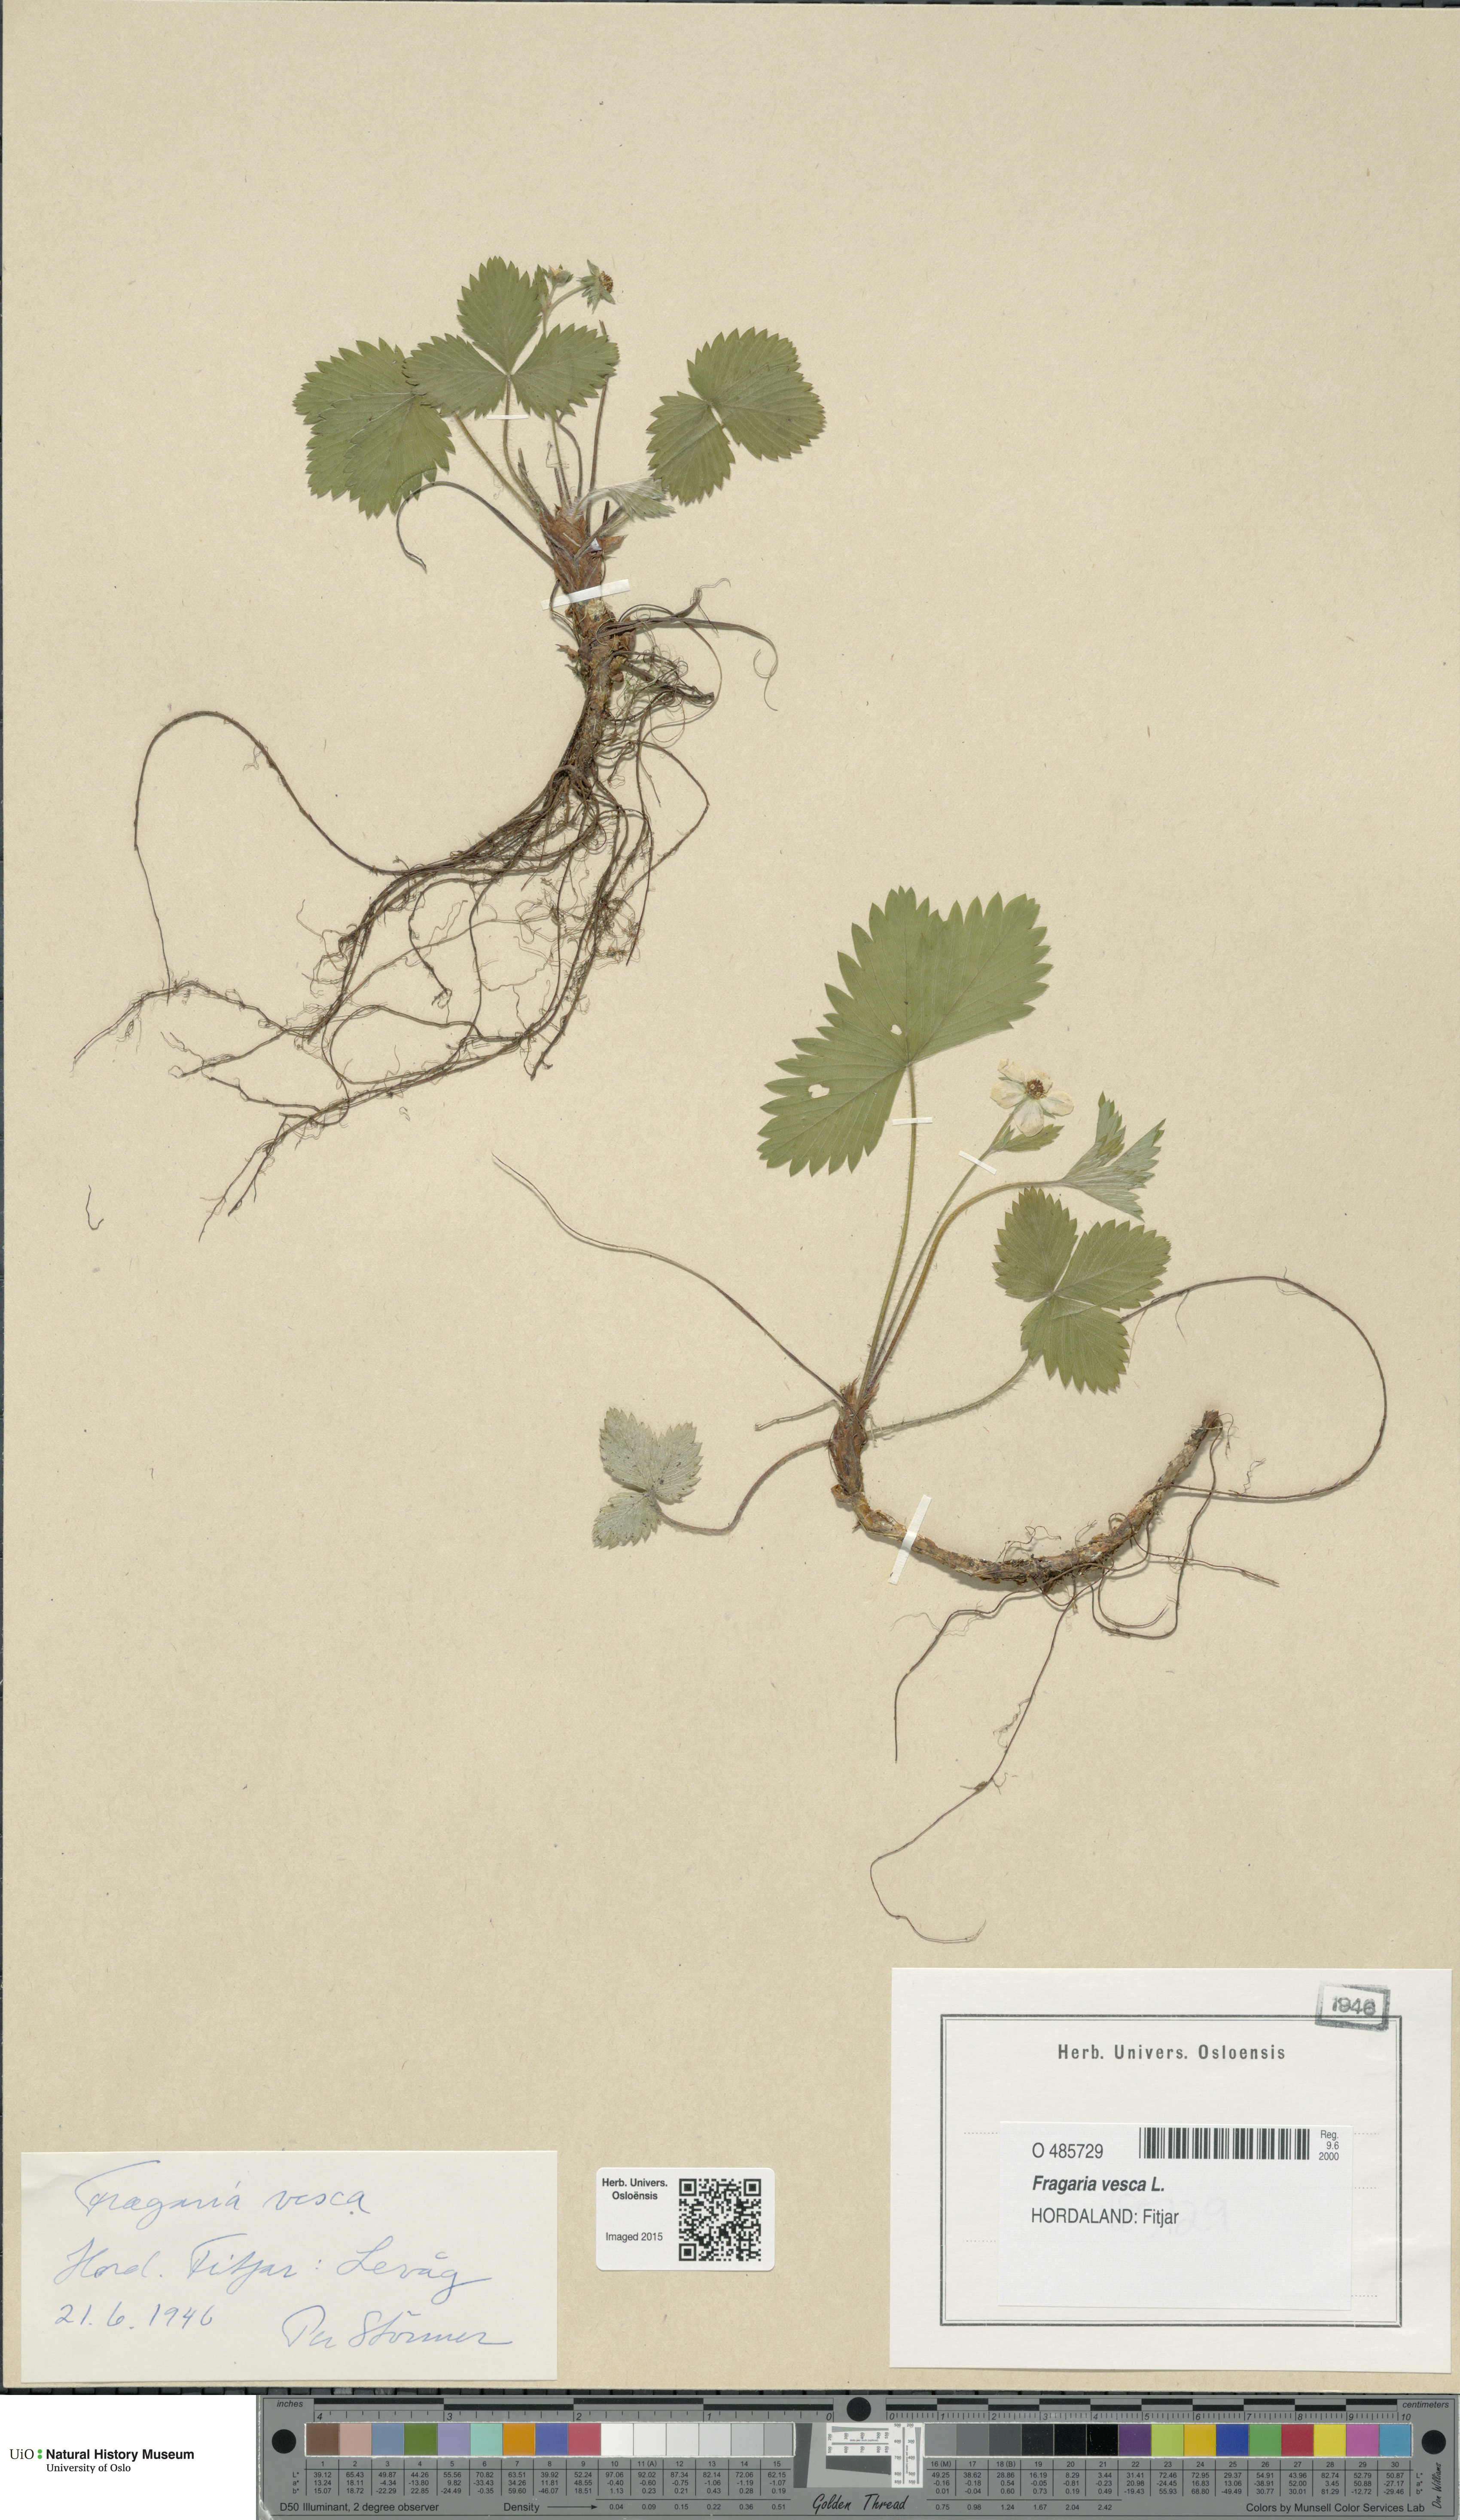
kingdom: Plantae
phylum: Tracheophyta
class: Magnoliopsida
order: Rosales
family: Rosaceae
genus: Fragaria
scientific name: Fragaria vesca
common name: Wild strawberry
